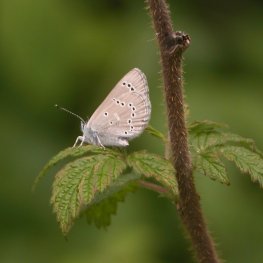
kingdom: Animalia
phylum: Arthropoda
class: Insecta
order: Lepidoptera
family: Lycaenidae
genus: Glaucopsyche
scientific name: Glaucopsyche lygdamus
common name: Silvery Blue
